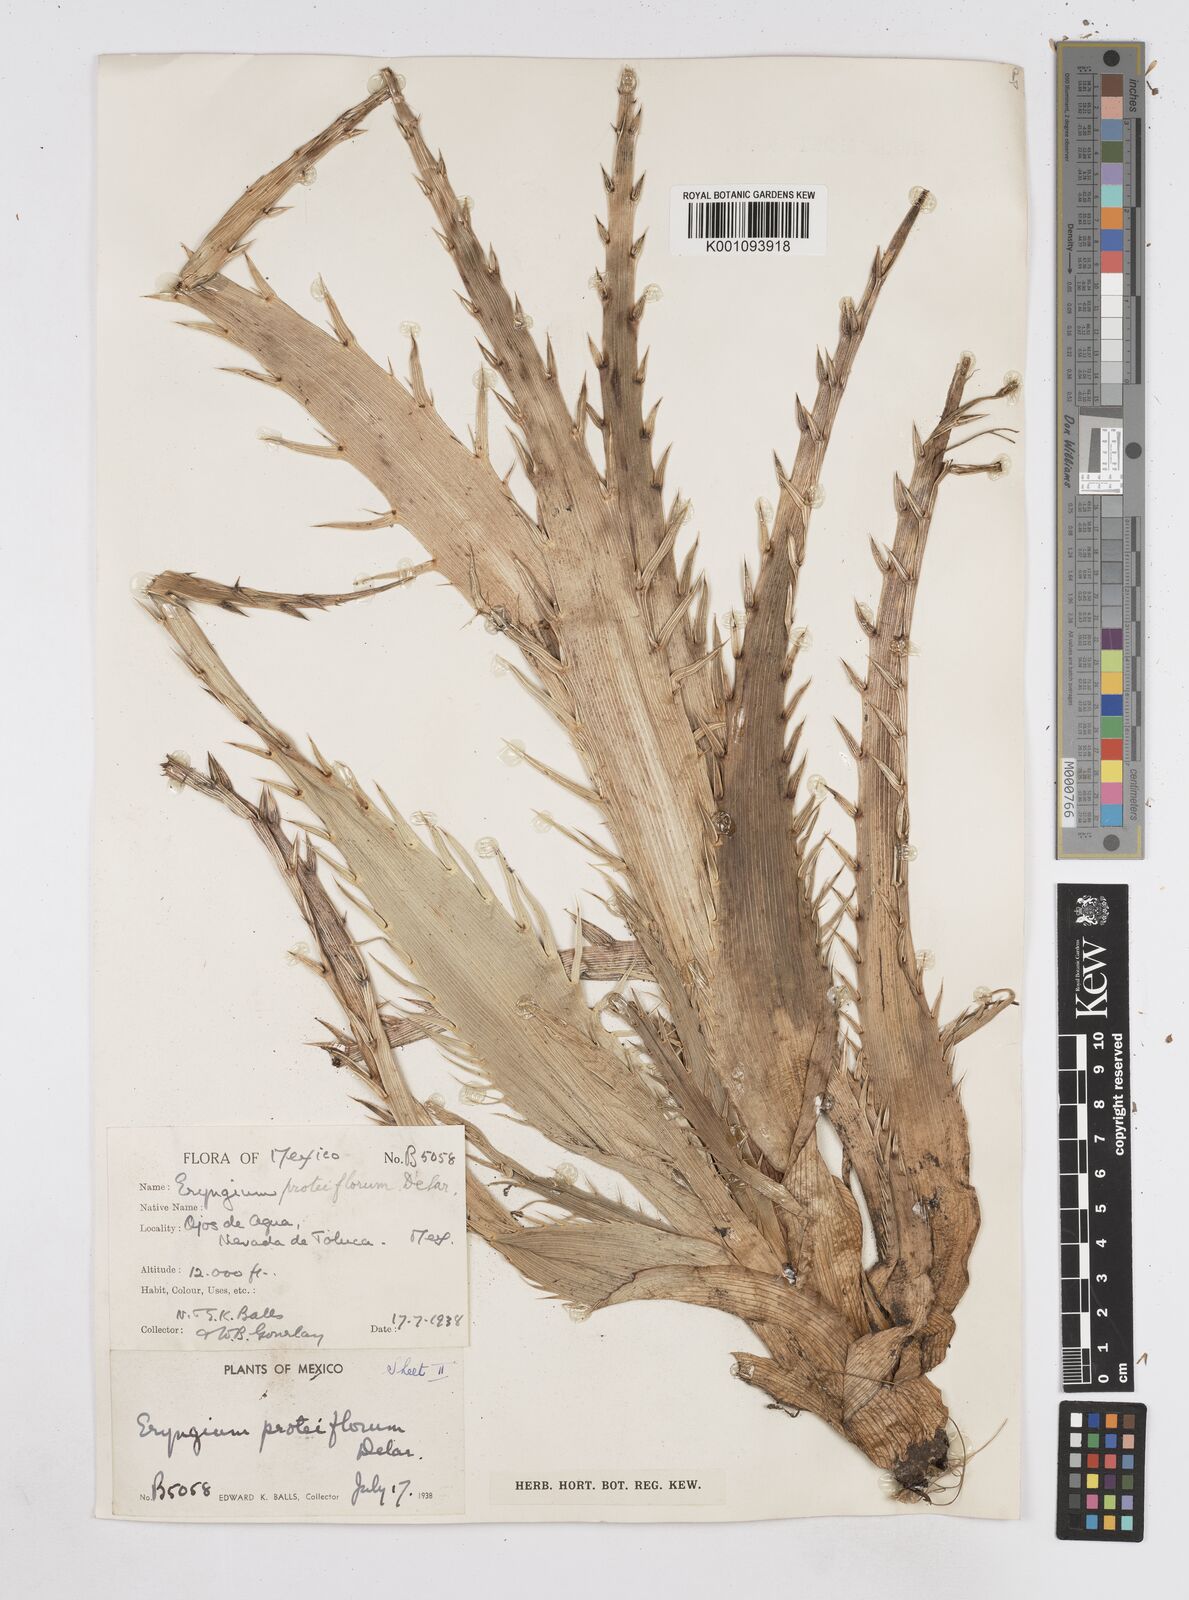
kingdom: Plantae
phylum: Tracheophyta
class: Magnoliopsida
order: Apiales
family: Apiaceae
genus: Eryngium
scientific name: Eryngium proteiflorum
